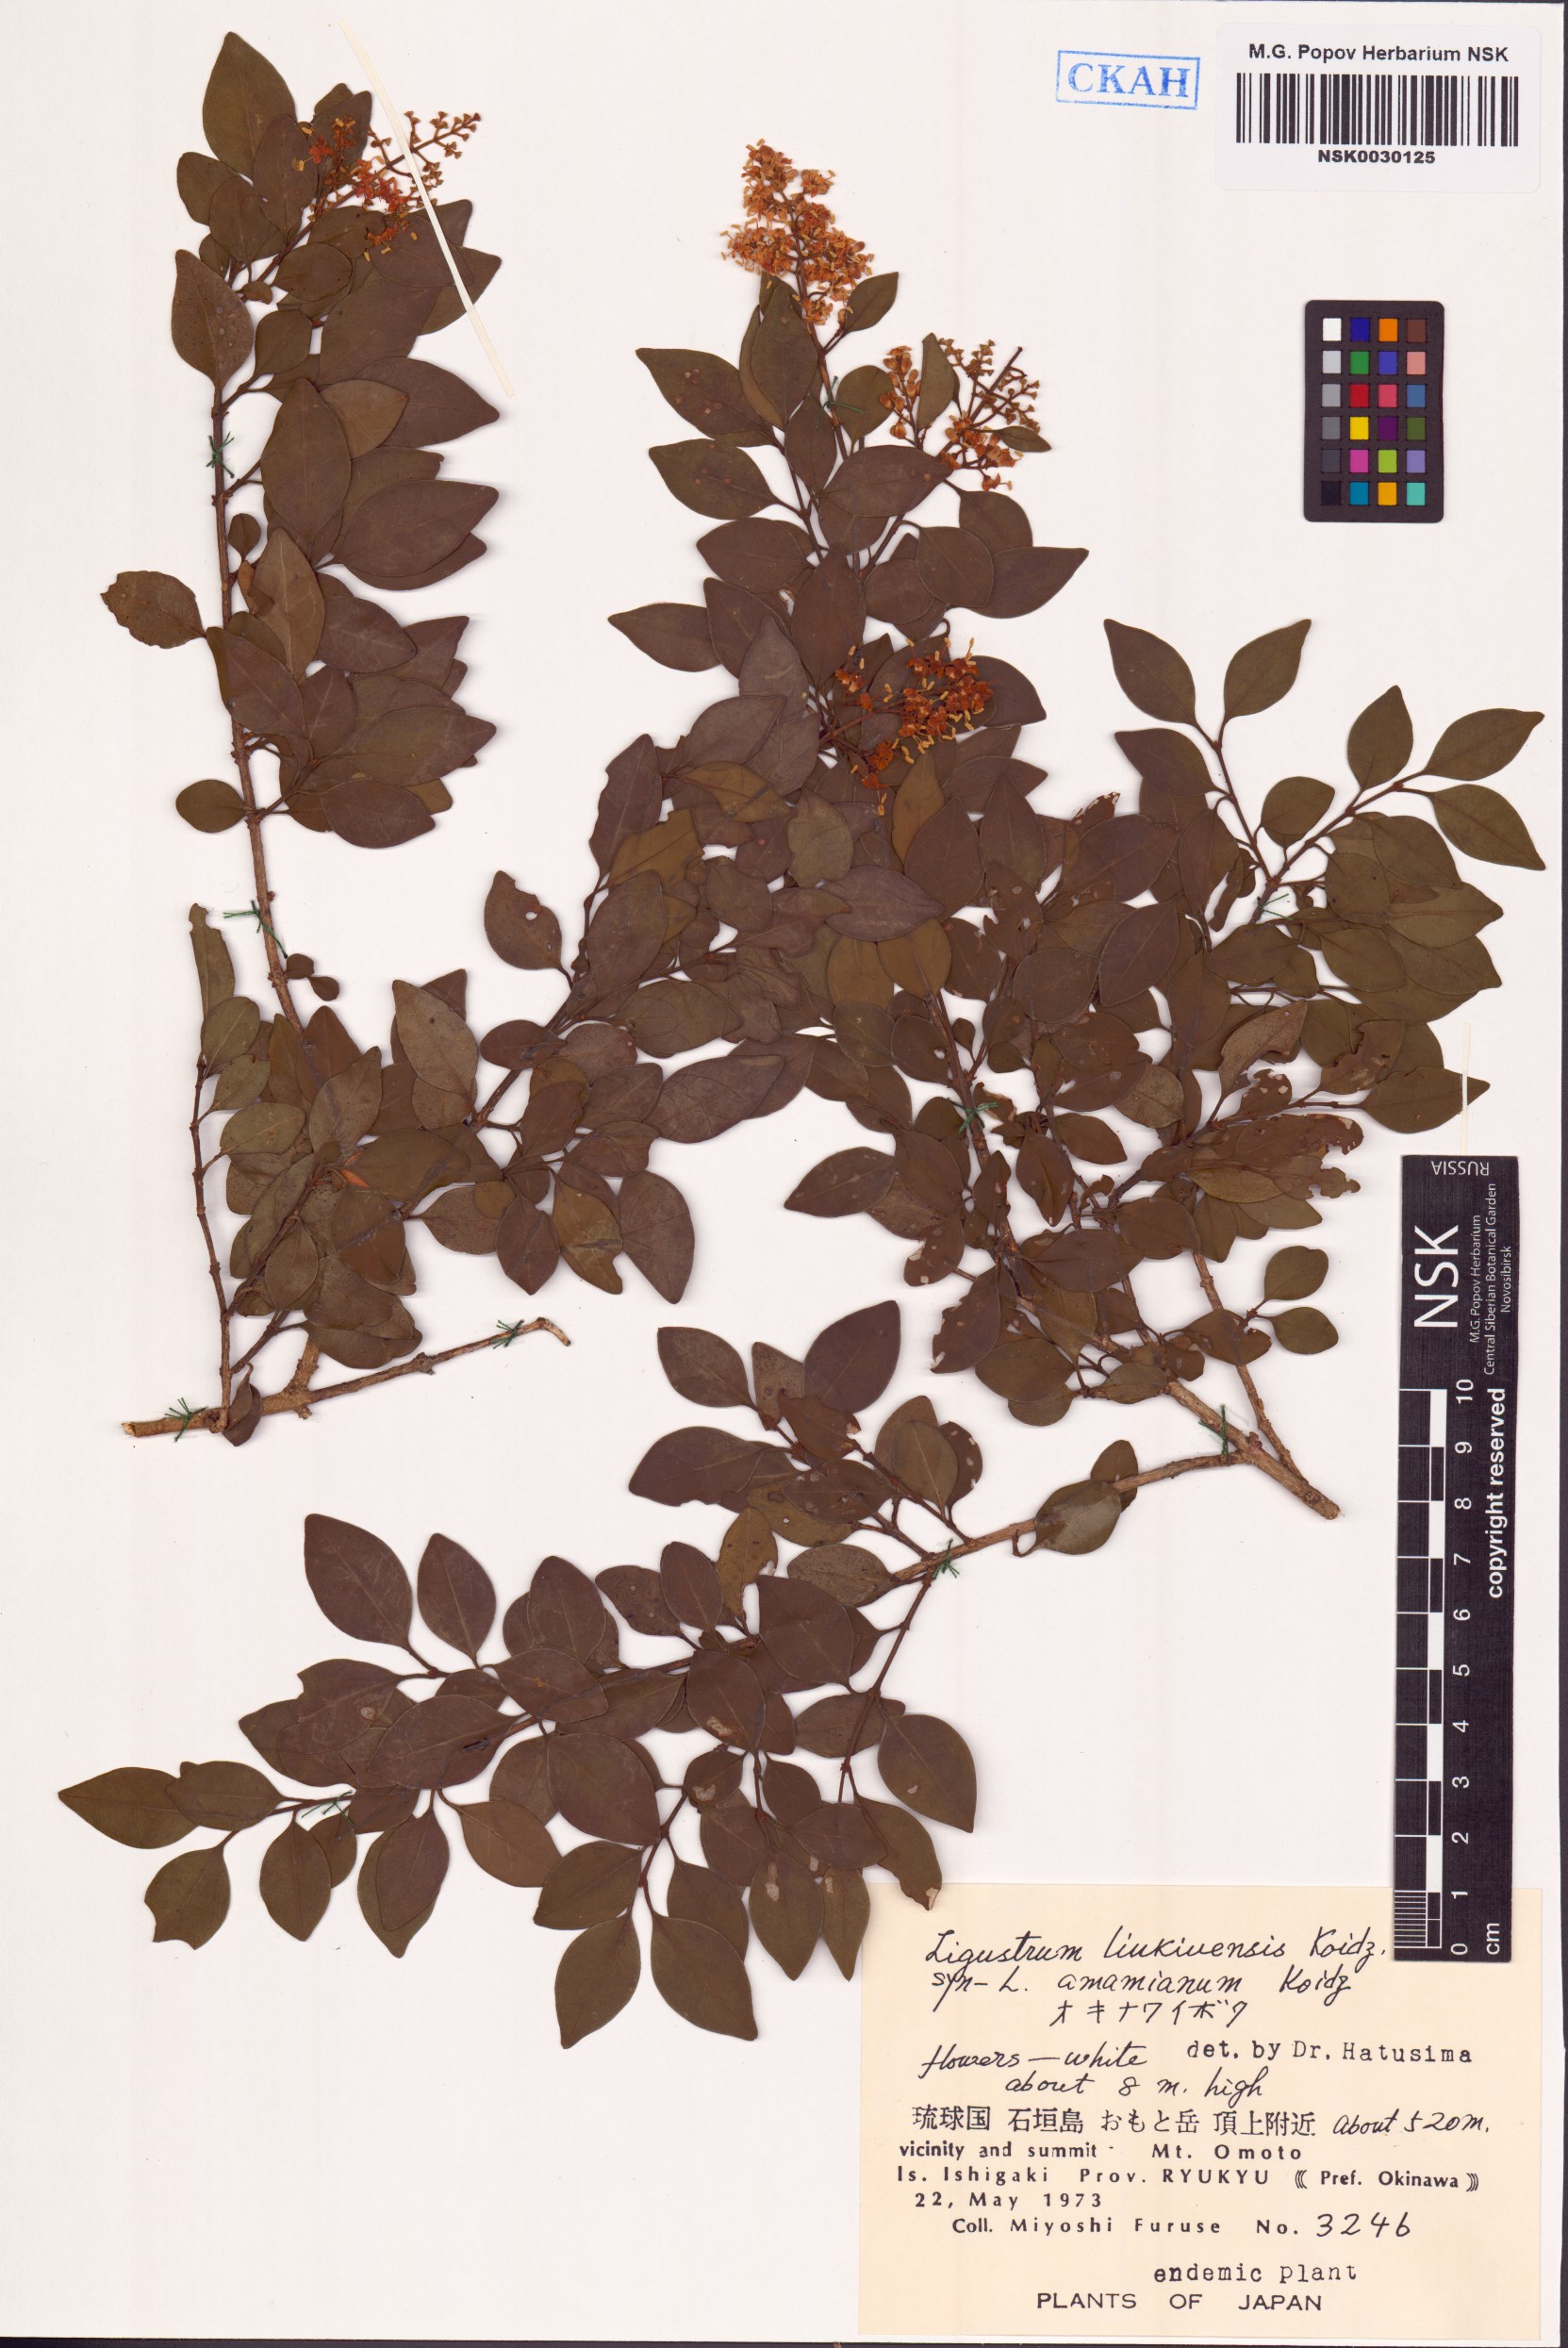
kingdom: Plantae
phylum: Tracheophyta
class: Magnoliopsida
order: Lamiales
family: Oleaceae
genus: Ligustrum
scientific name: Ligustrum liukiuense
